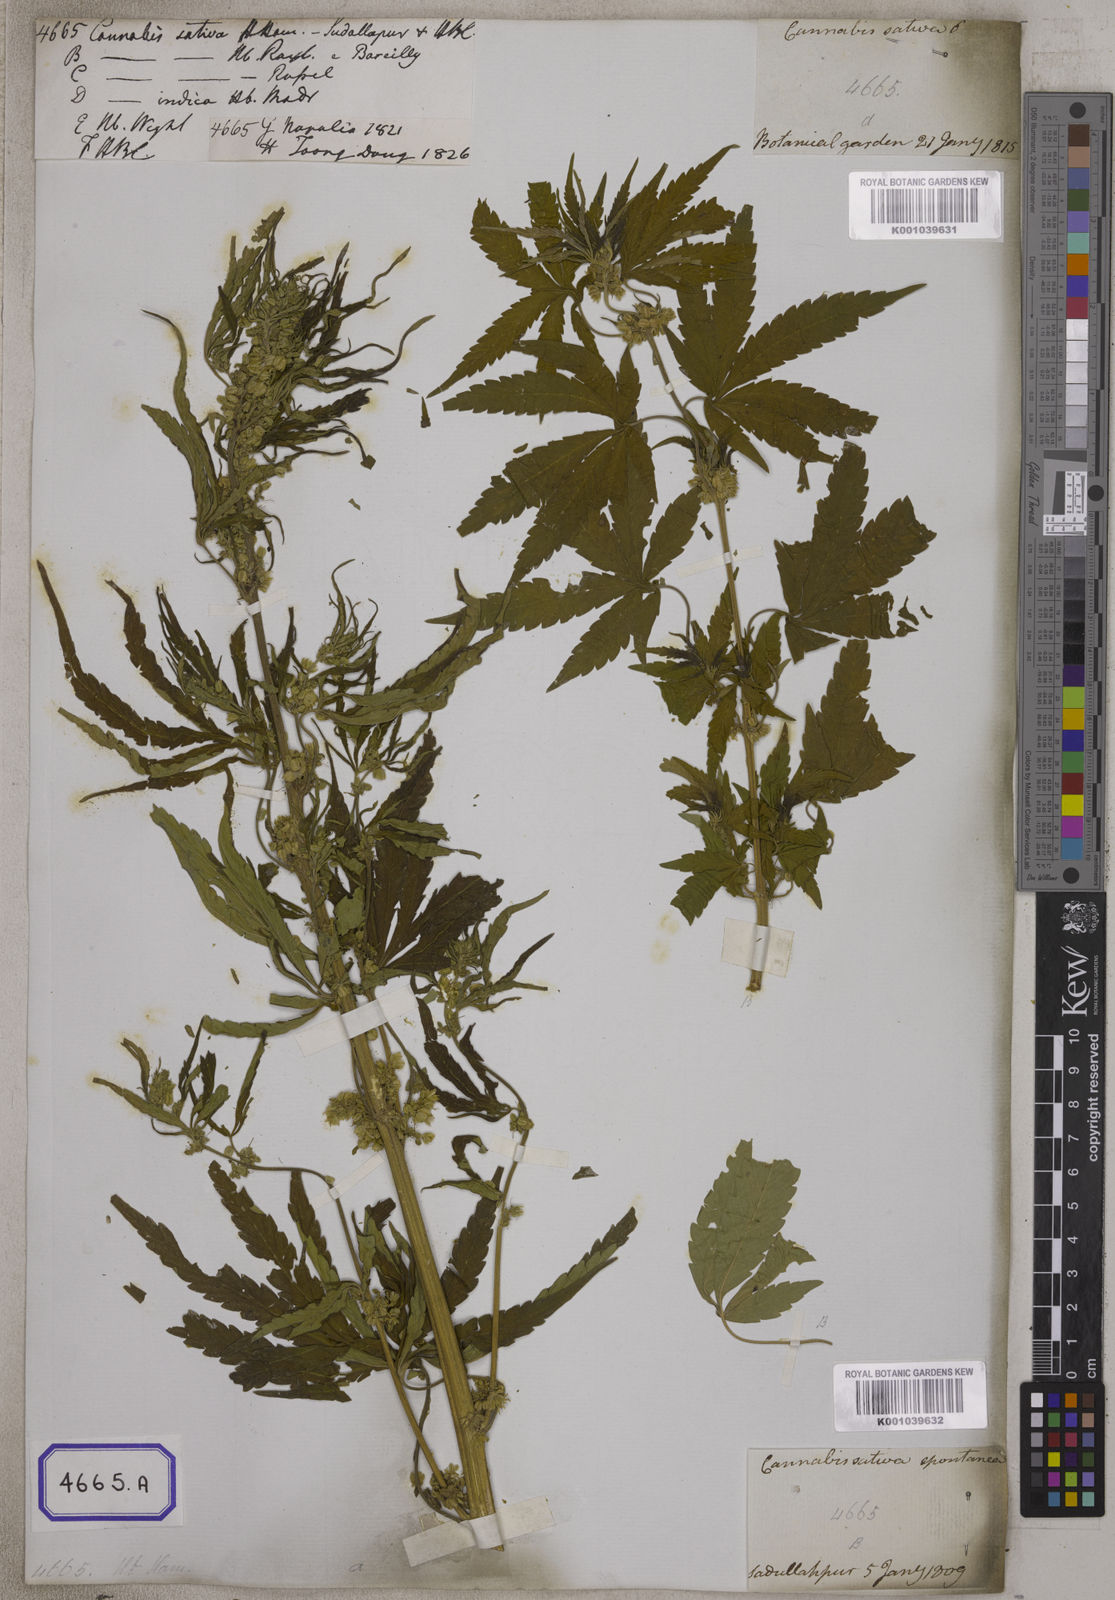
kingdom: Plantae
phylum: Tracheophyta
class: Magnoliopsida
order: Rosales
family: Cannabaceae
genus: Cannabis
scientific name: Cannabis sativa
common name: Hemp
